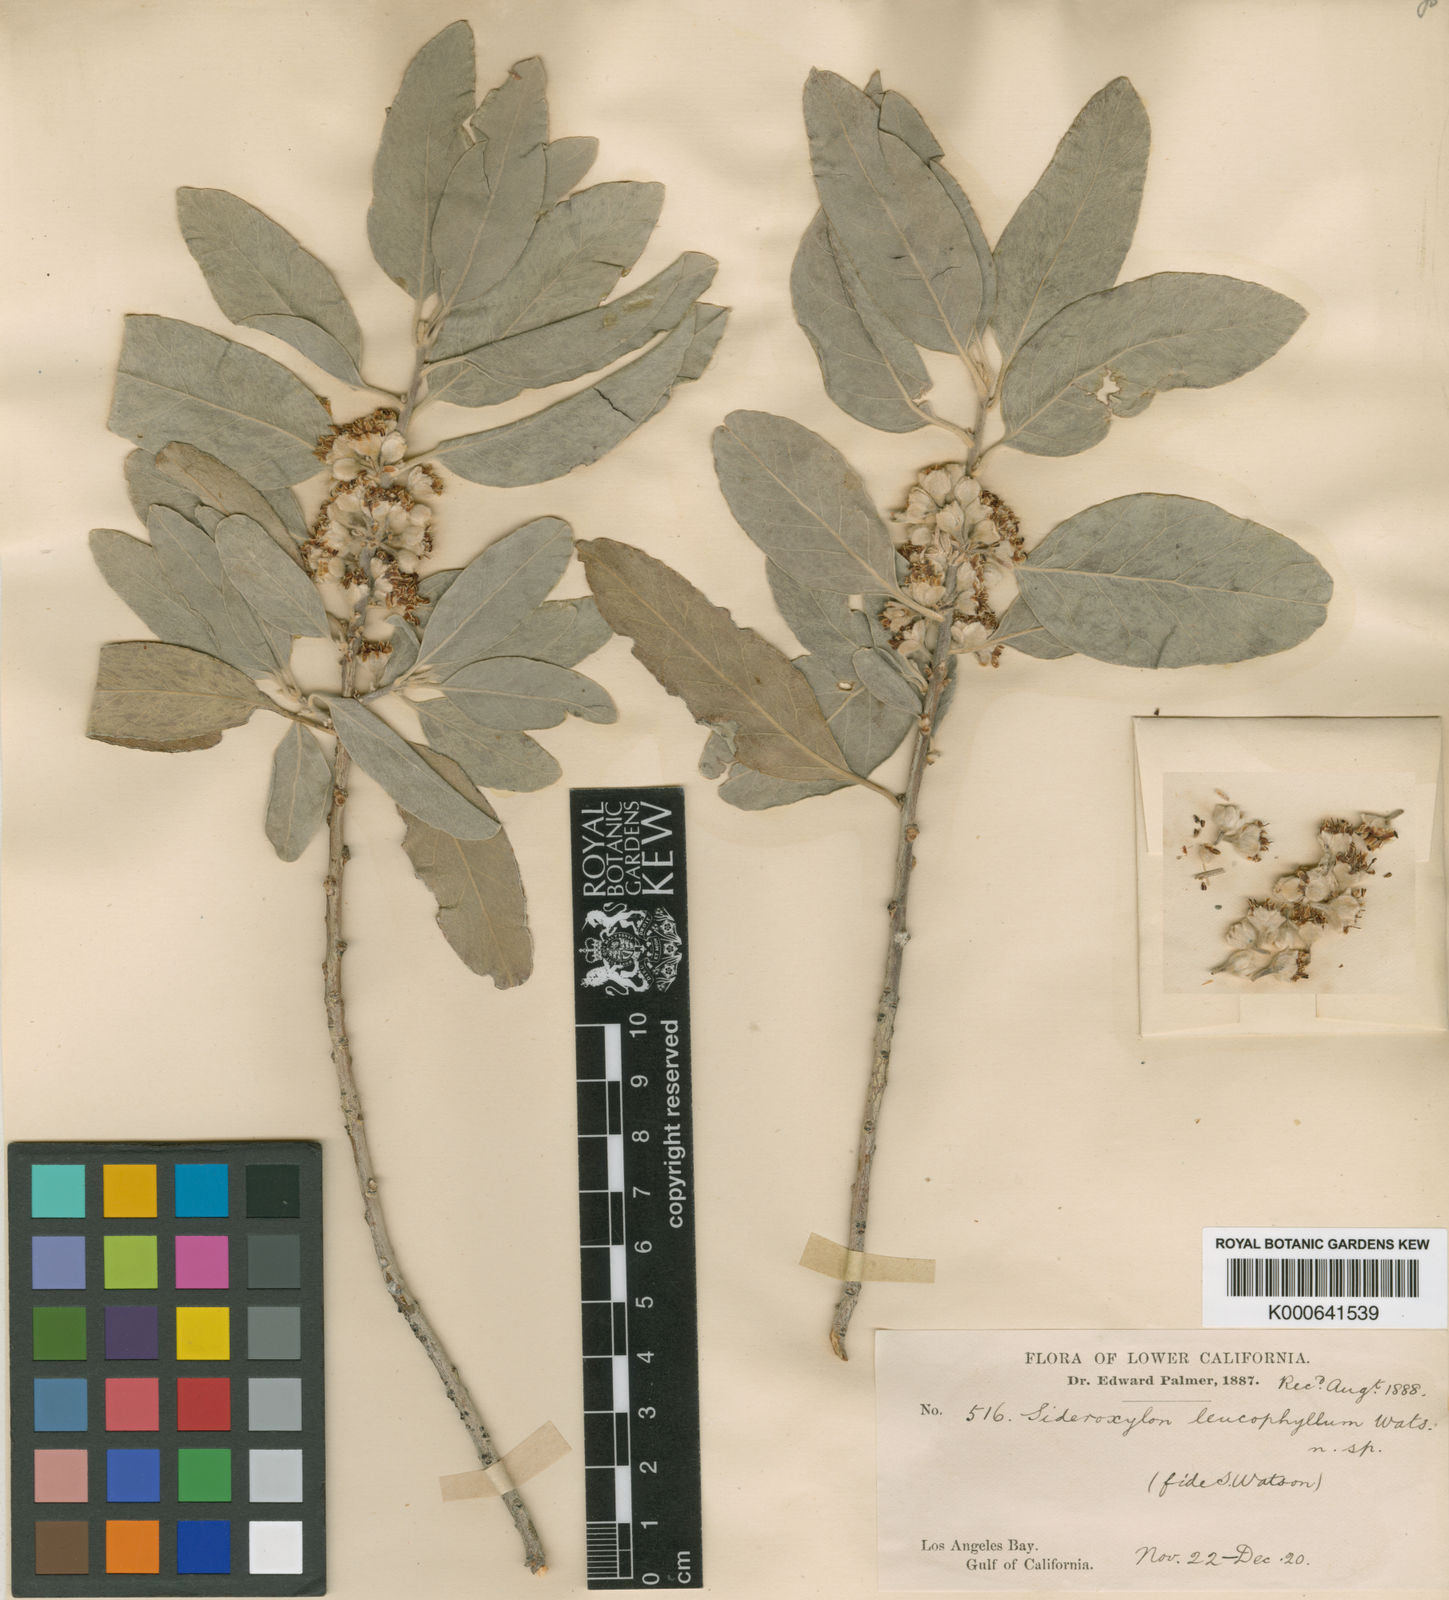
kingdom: Plantae
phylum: Tracheophyta
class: Magnoliopsida
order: Ericales
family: Sapotaceae
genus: Sideroxylon
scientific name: Sideroxylon leucophyllum
